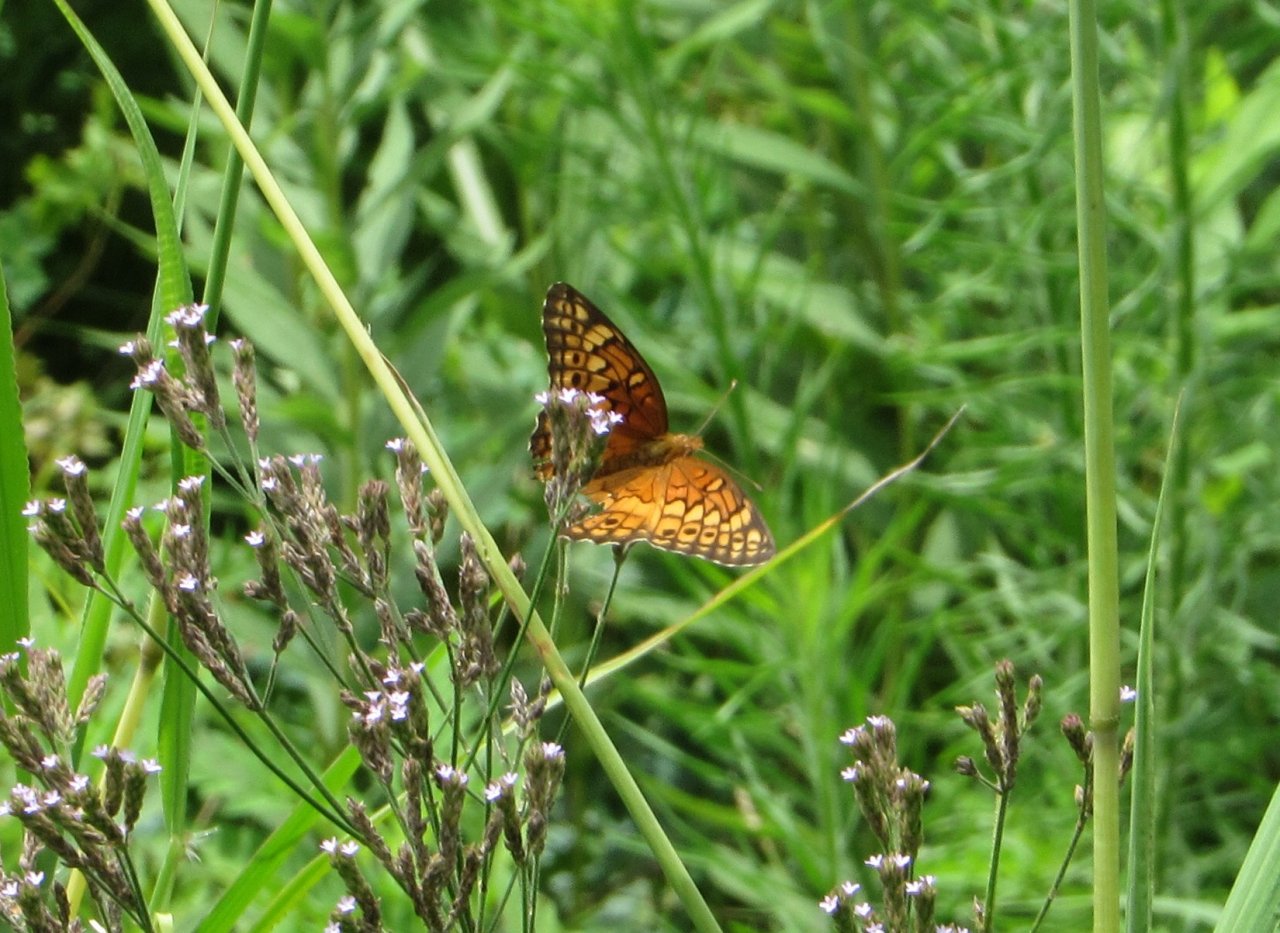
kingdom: Animalia
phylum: Arthropoda
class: Insecta
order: Lepidoptera
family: Nymphalidae
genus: Euptoieta
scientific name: Euptoieta claudia
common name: Variegated Fritillary
